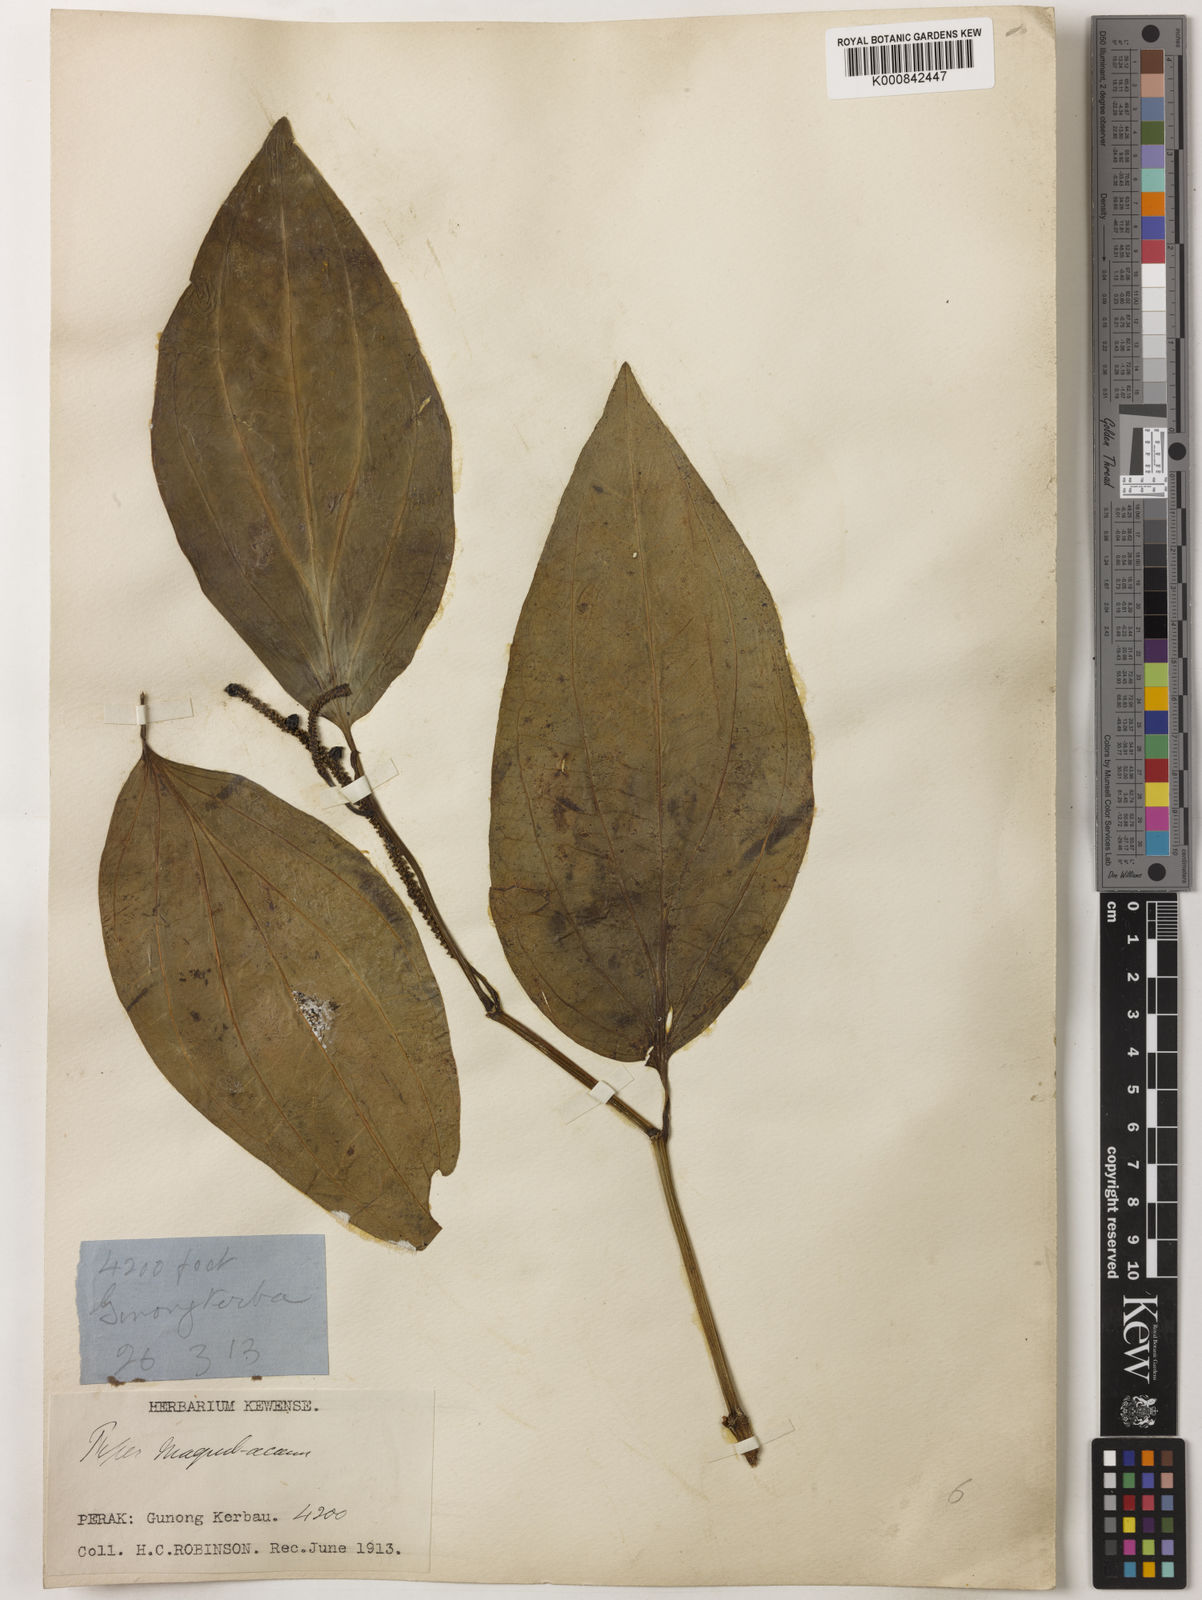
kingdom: Plantae
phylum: Tracheophyta
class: Magnoliopsida
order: Piperales
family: Piperaceae
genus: Piper
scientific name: Piper quinqueangulatum
